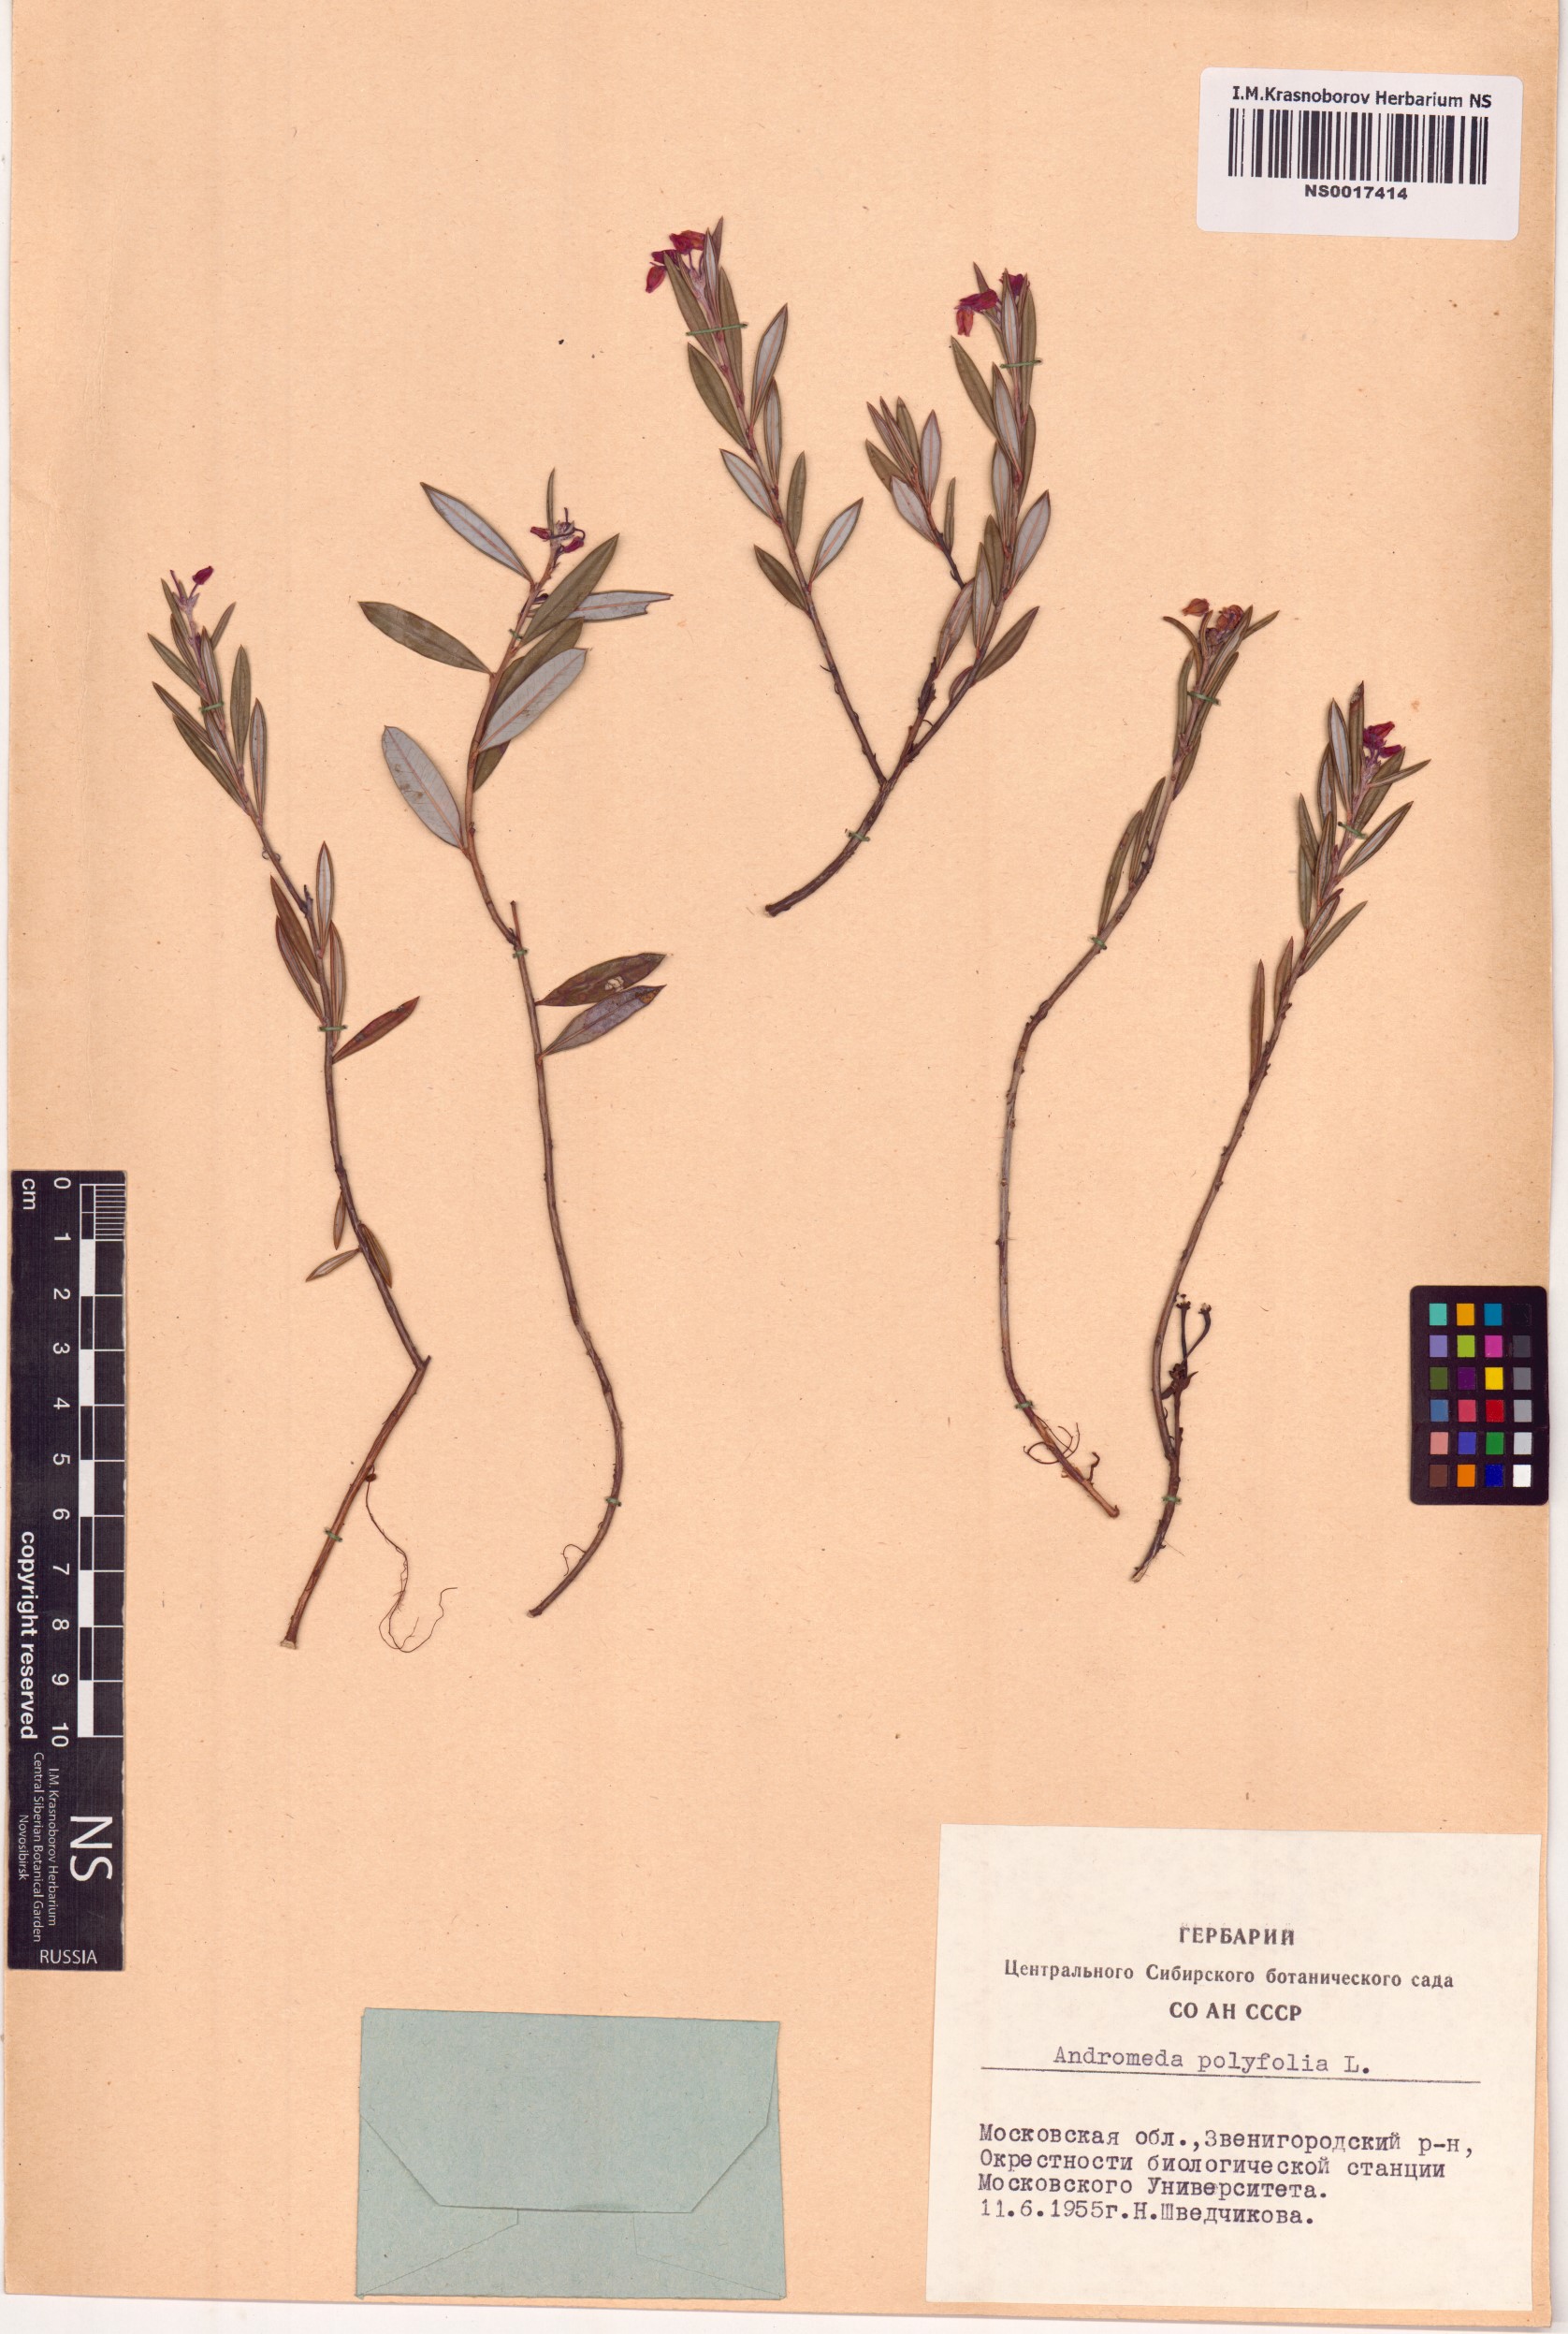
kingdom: Plantae
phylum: Tracheophyta
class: Magnoliopsida
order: Ericales
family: Ericaceae
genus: Andromeda
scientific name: Andromeda polifolia
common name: Bog-rosemary
